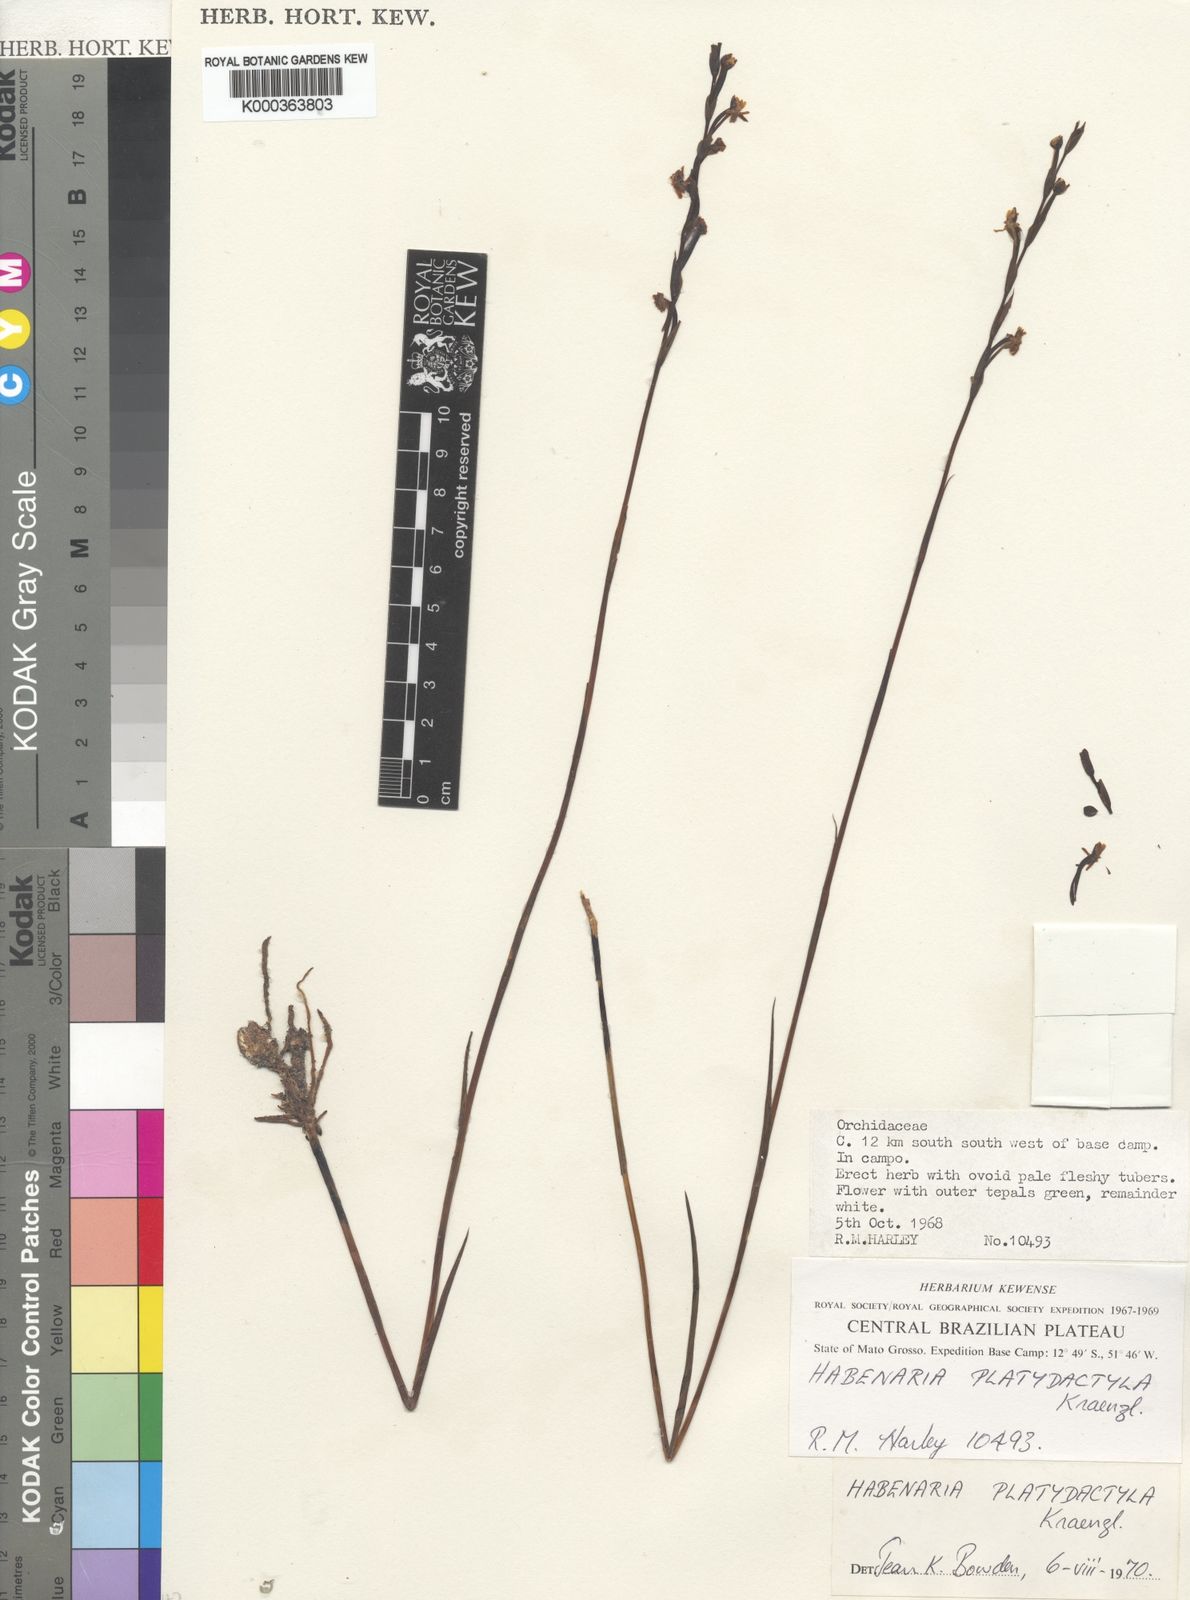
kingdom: Plantae
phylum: Tracheophyta
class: Liliopsida
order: Asparagales
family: Orchidaceae
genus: Habenaria
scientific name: Habenaria leprieurii
